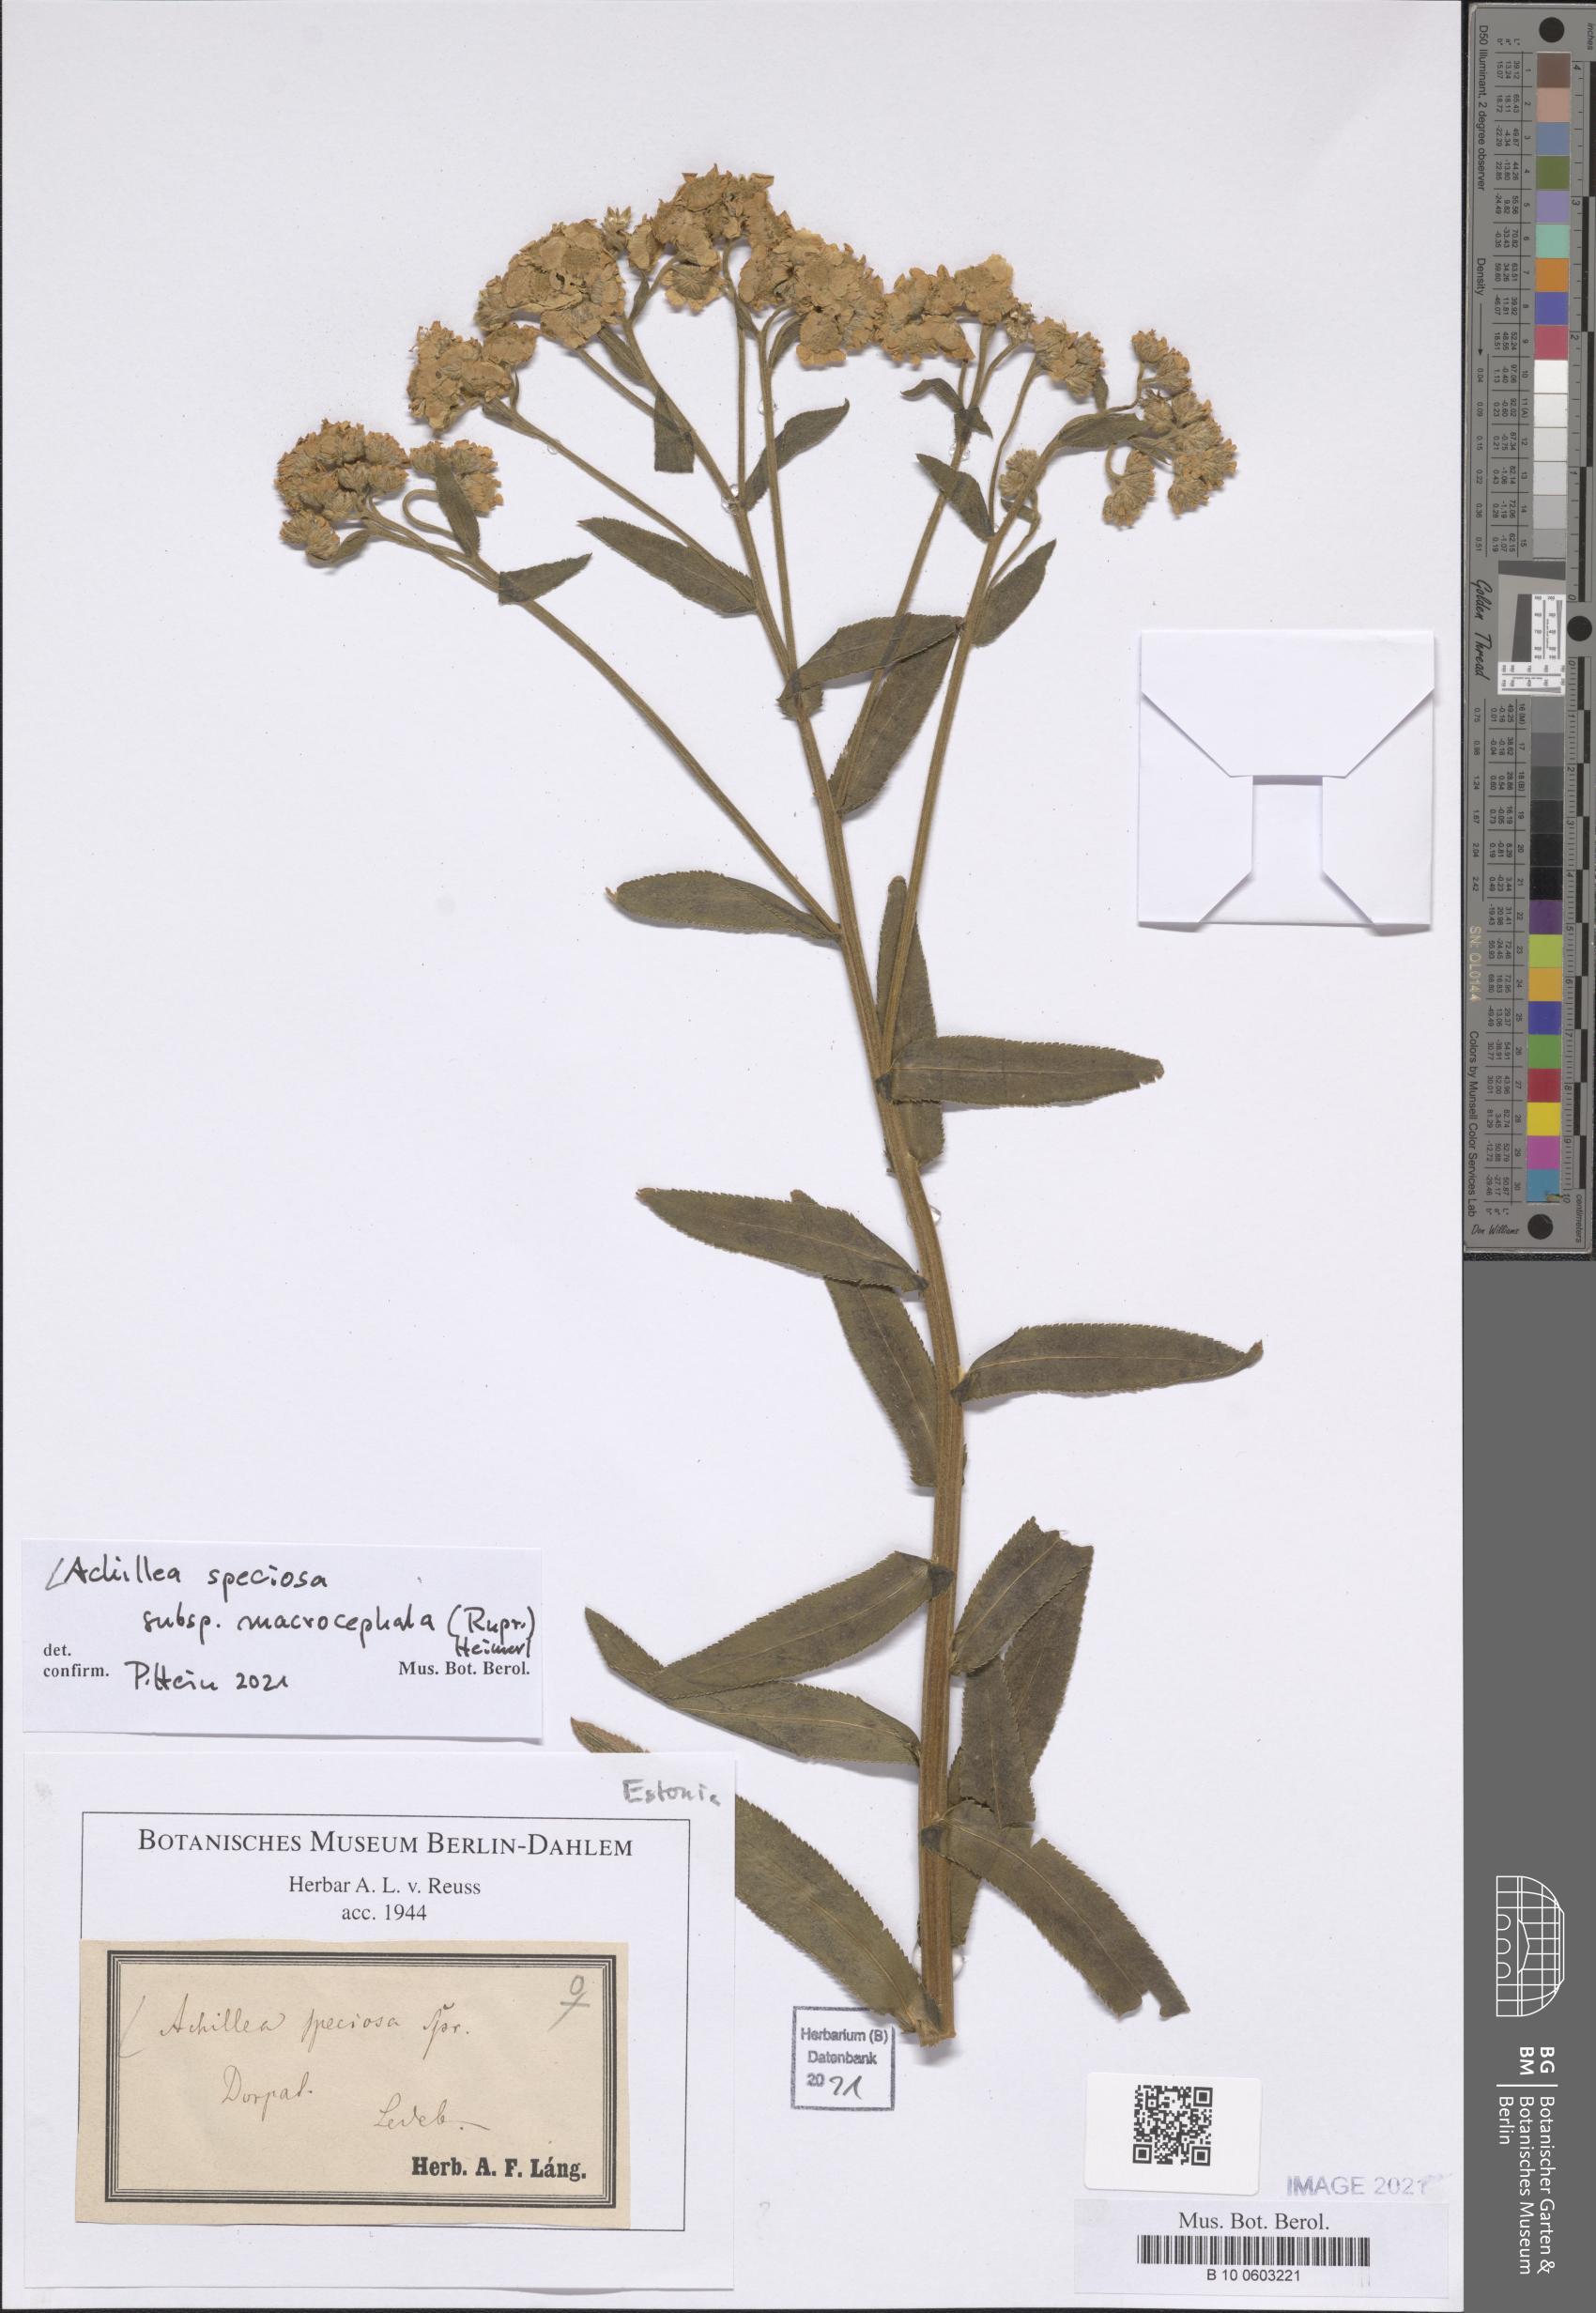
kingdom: Plantae
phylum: Tracheophyta
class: Magnoliopsida
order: Asterales
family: Asteraceae
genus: Achillea
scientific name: Achillea ptarmica
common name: Sneezeweed
